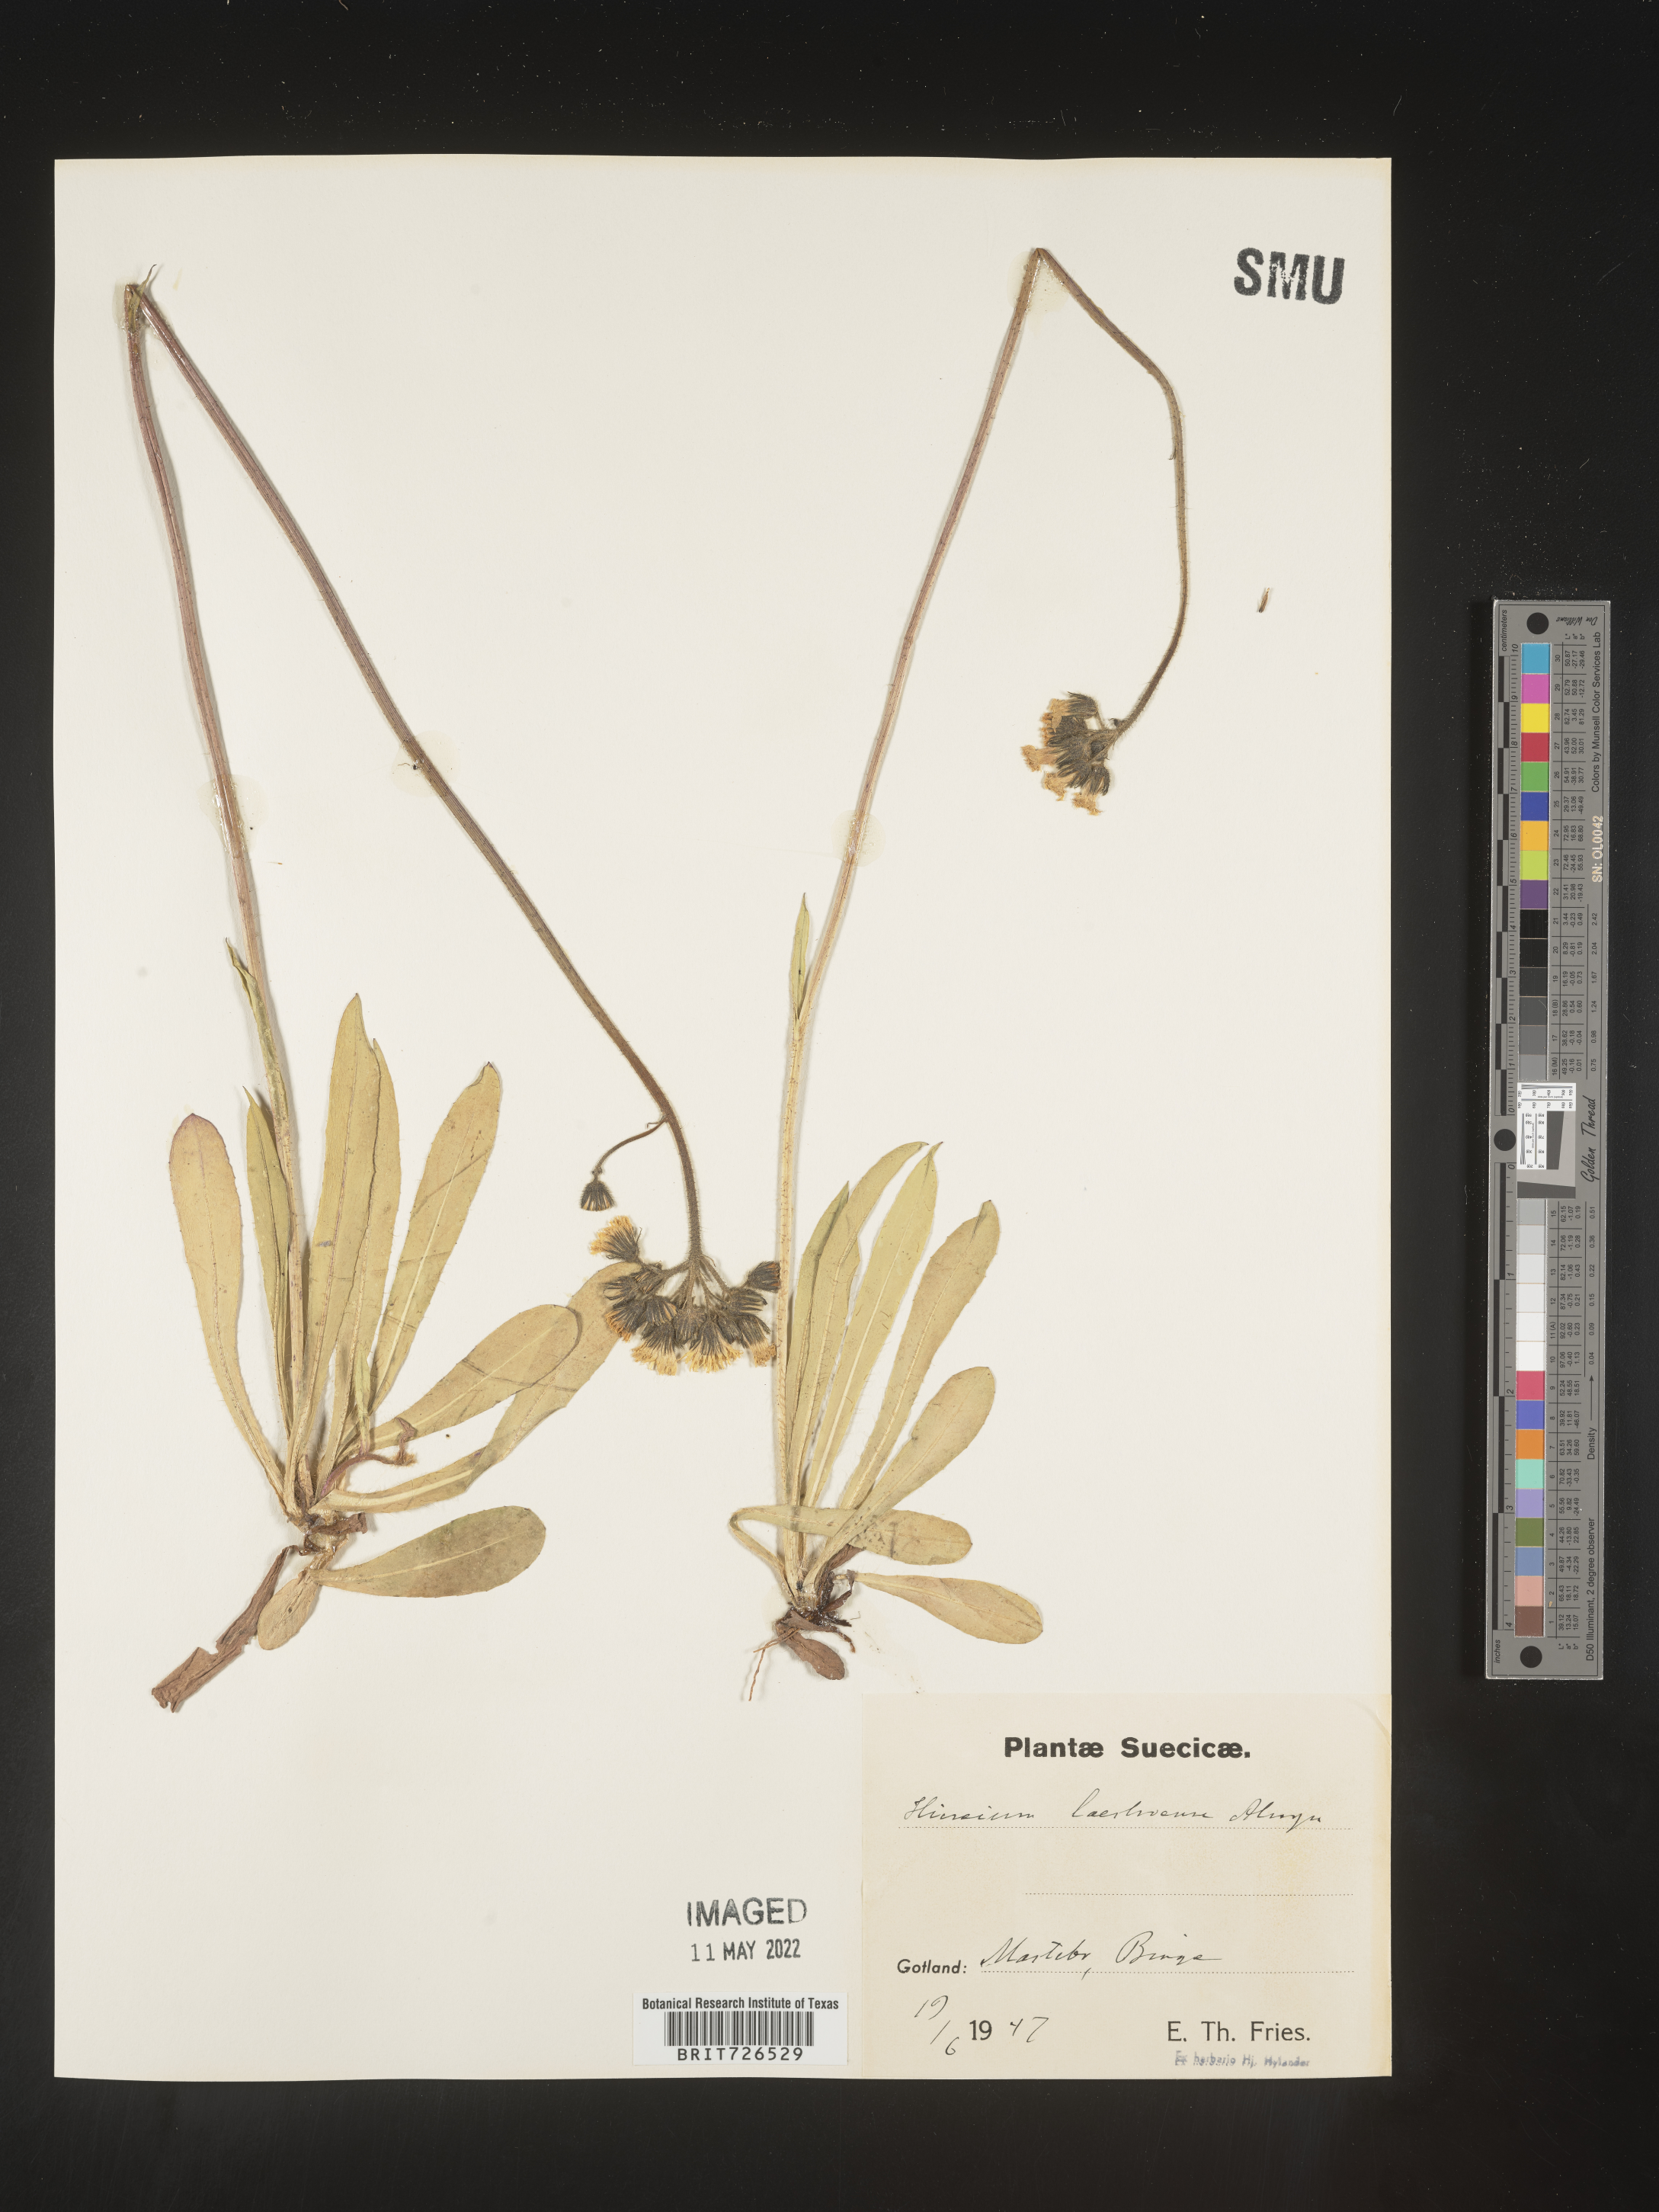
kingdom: Plantae
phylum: Tracheophyta
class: Magnoliopsida
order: Asterales
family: Asteraceae
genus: Hieracium
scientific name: Hieracium
